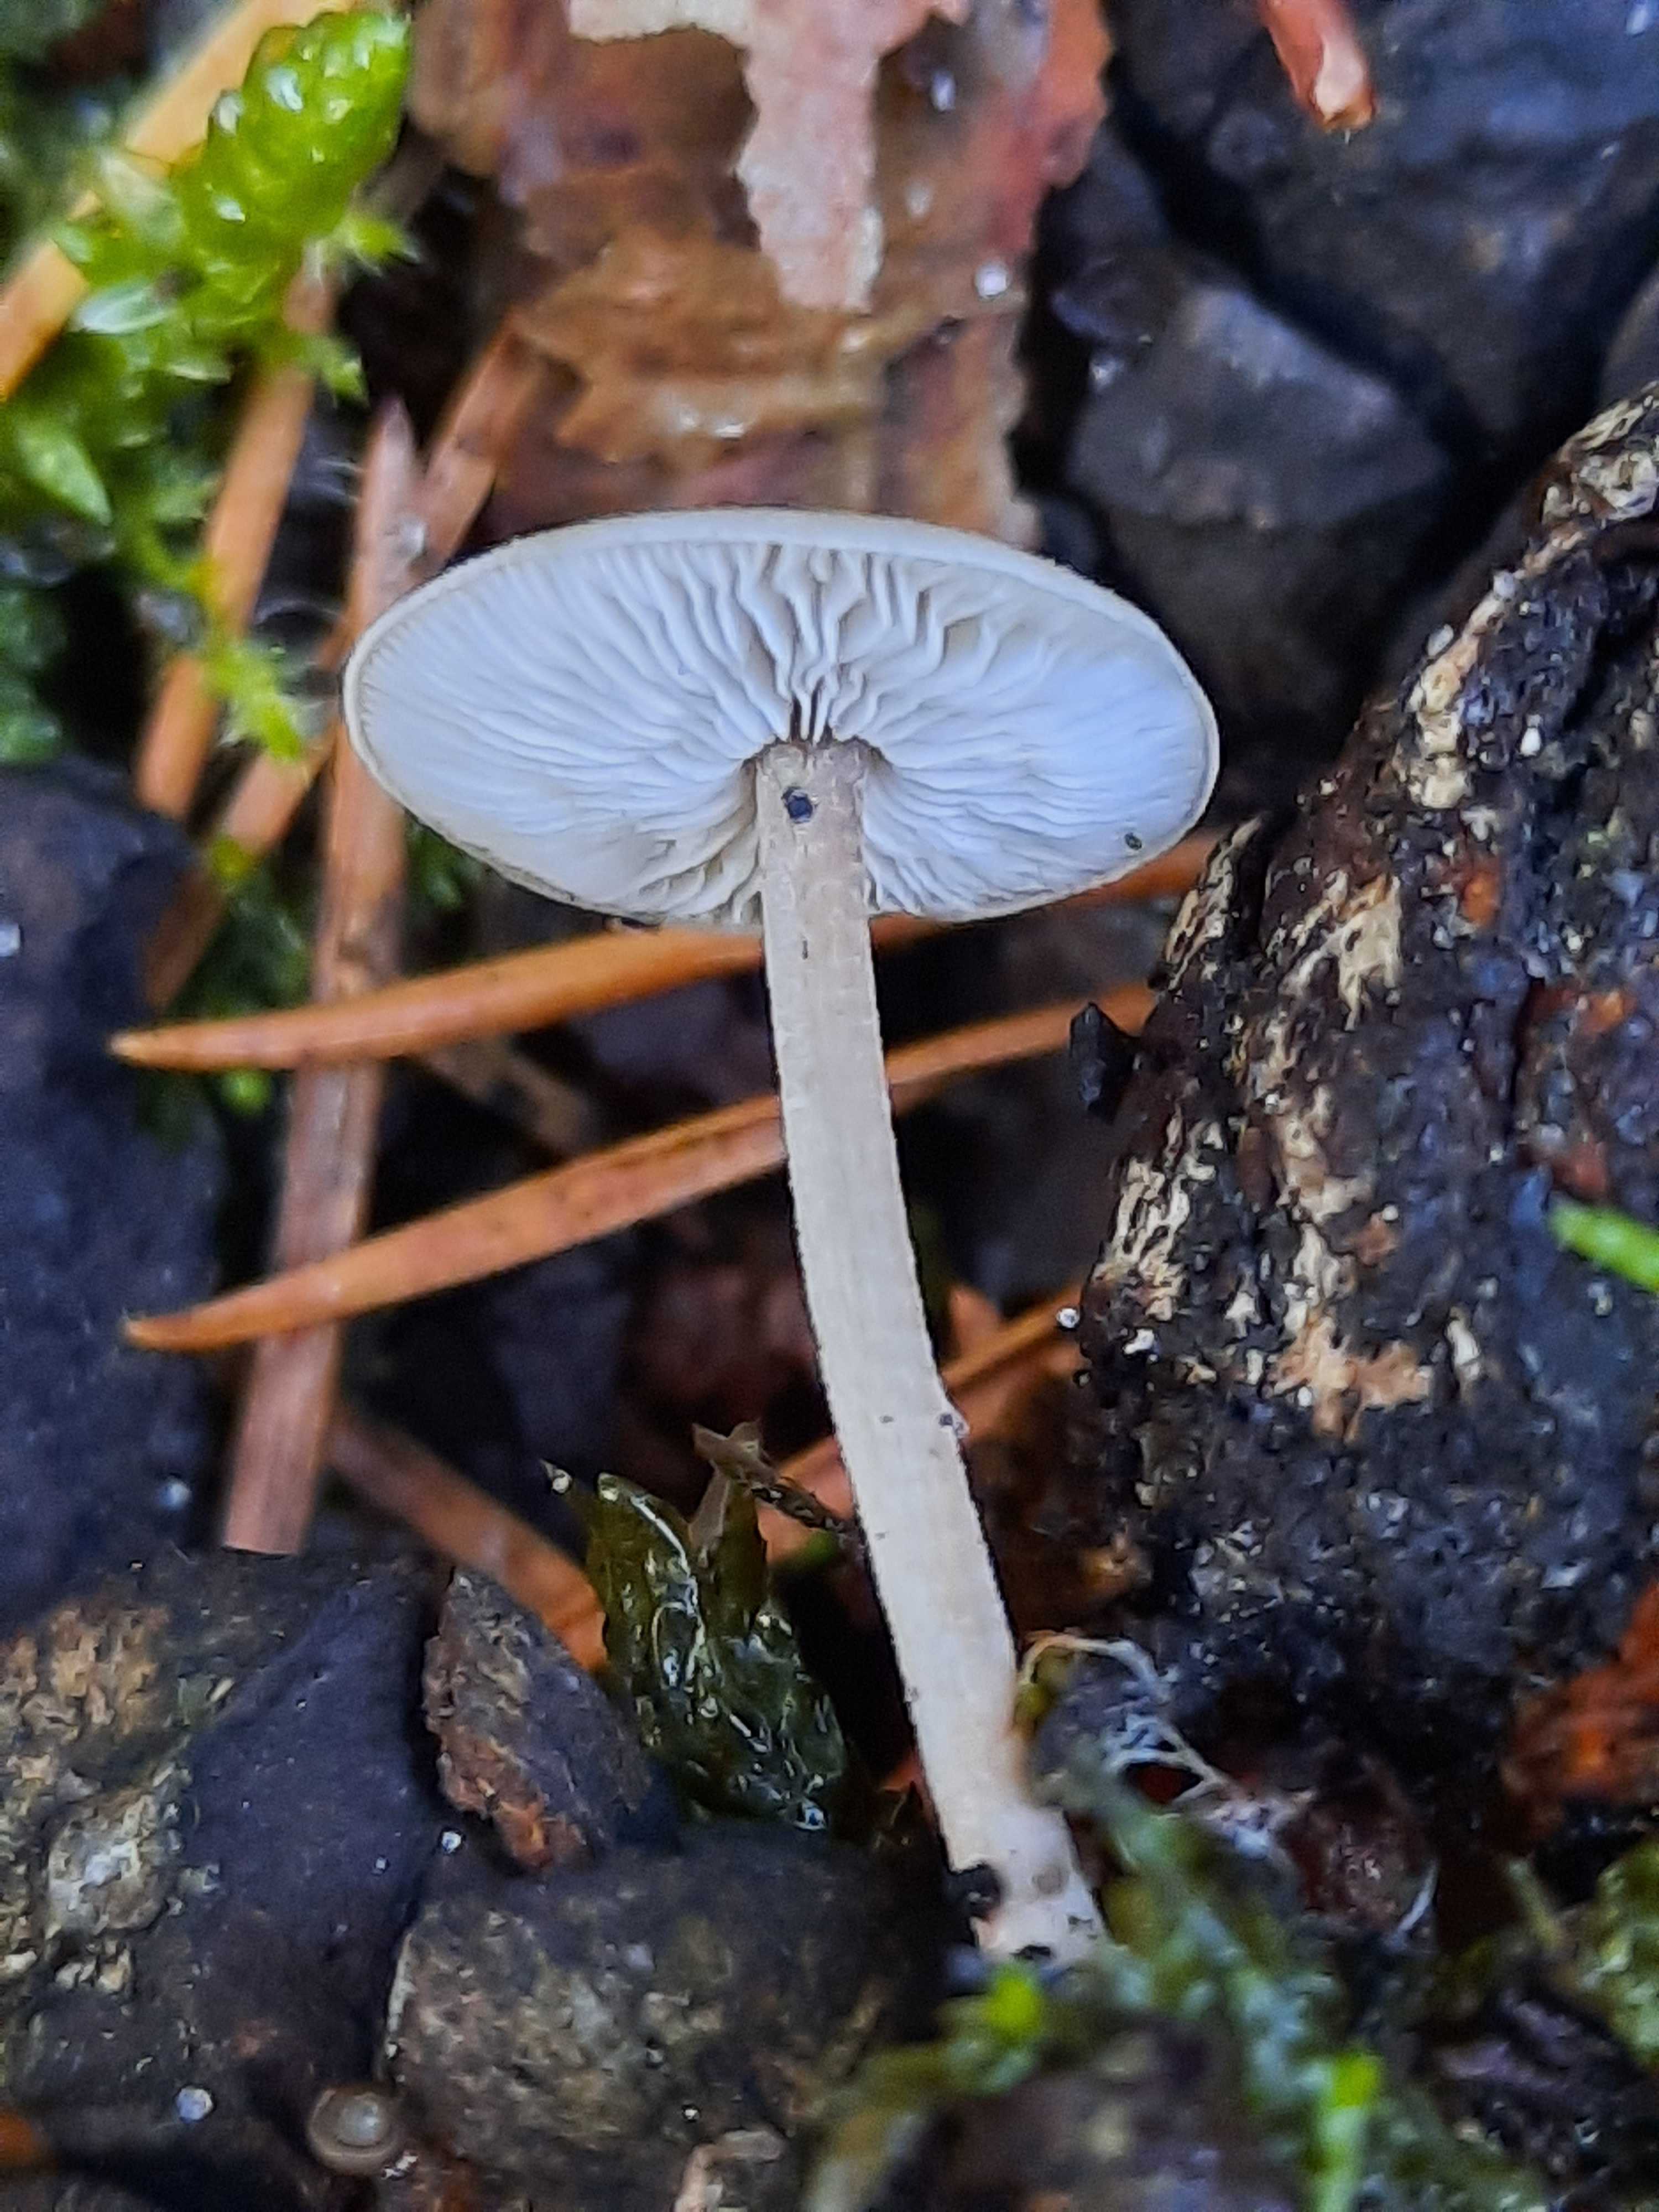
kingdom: Fungi
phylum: Basidiomycota
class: Agaricomycetes
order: Agaricales
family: Marasmiaceae
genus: Baeospora
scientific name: Baeospora myosura
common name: koglebruskhat
